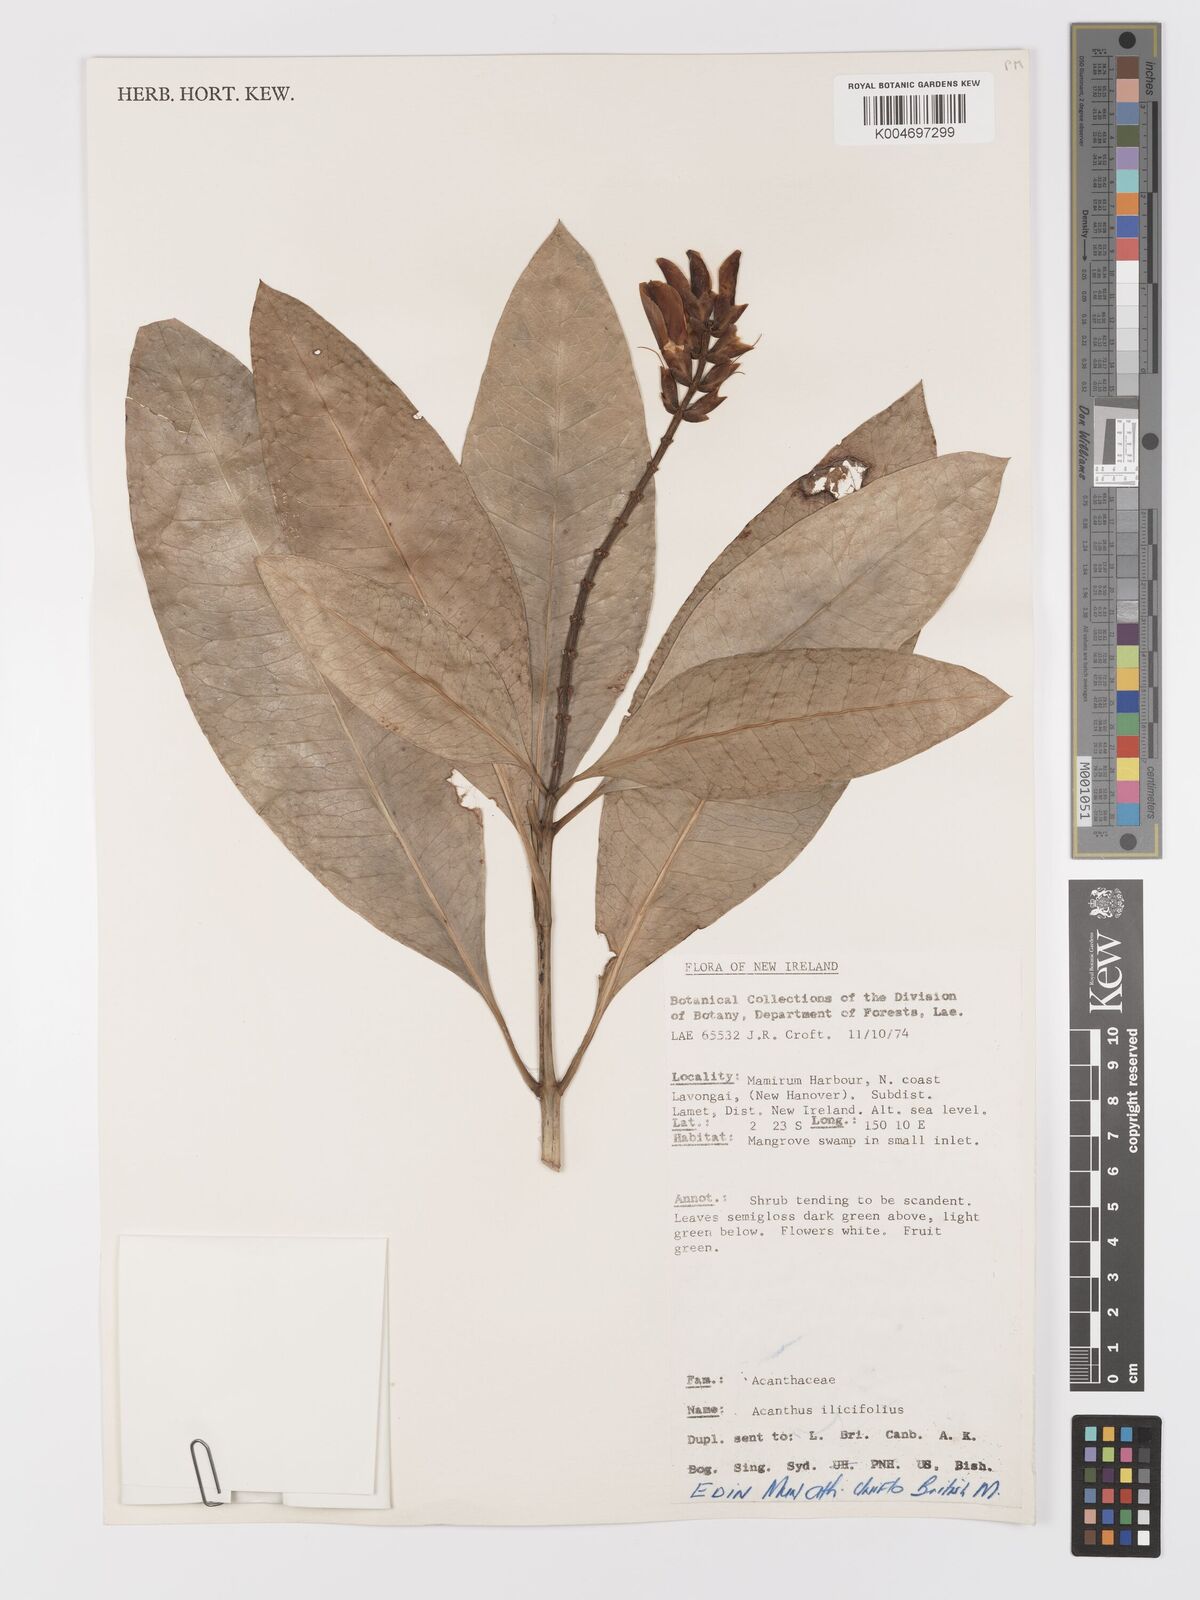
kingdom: Plantae
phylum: Tracheophyta
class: Magnoliopsida
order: Lamiales
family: Acanthaceae
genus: Acanthus
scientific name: Acanthus ilicifolius
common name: Holy mangrove
